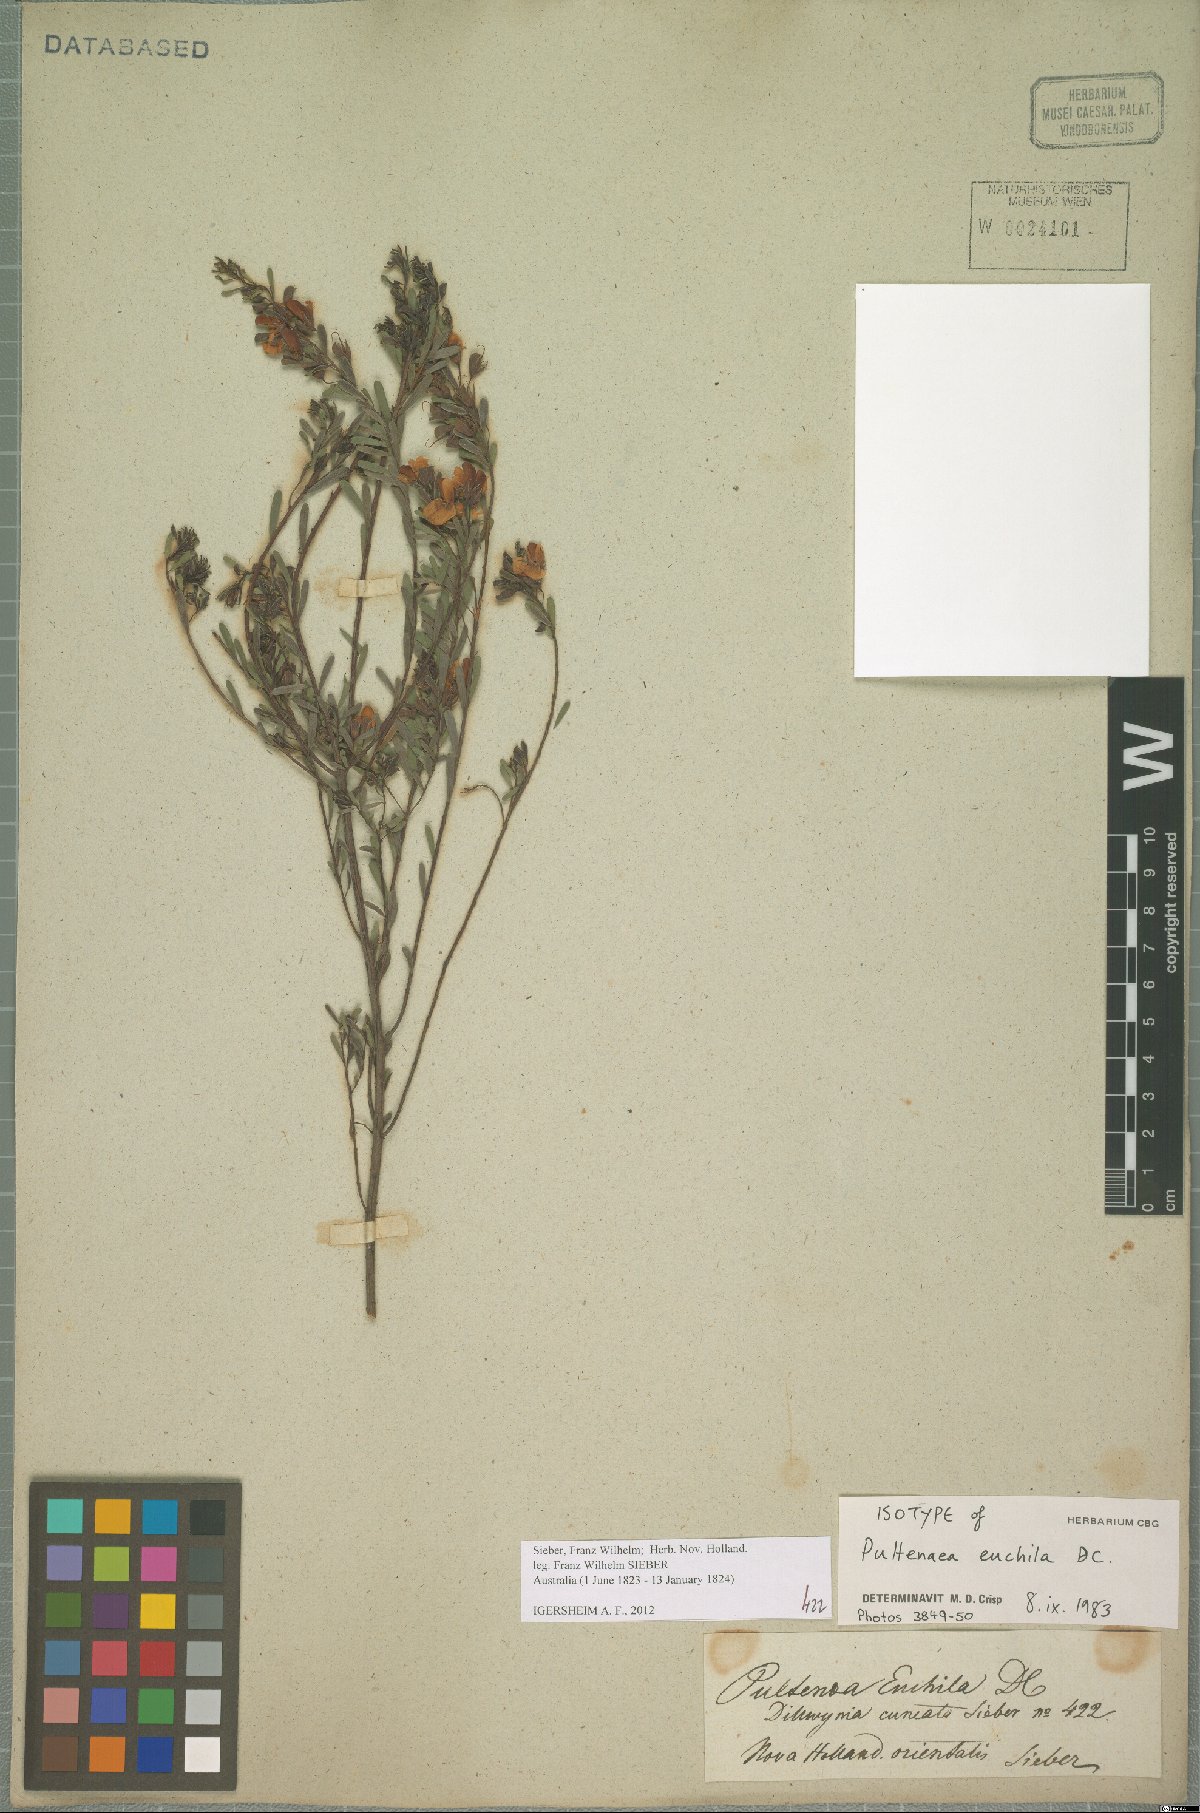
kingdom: Plantae
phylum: Tracheophyta
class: Magnoliopsida
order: Fabales
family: Fabaceae
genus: Pultenaea
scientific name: Pultenaea euchila
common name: Large-flower bush-pea
